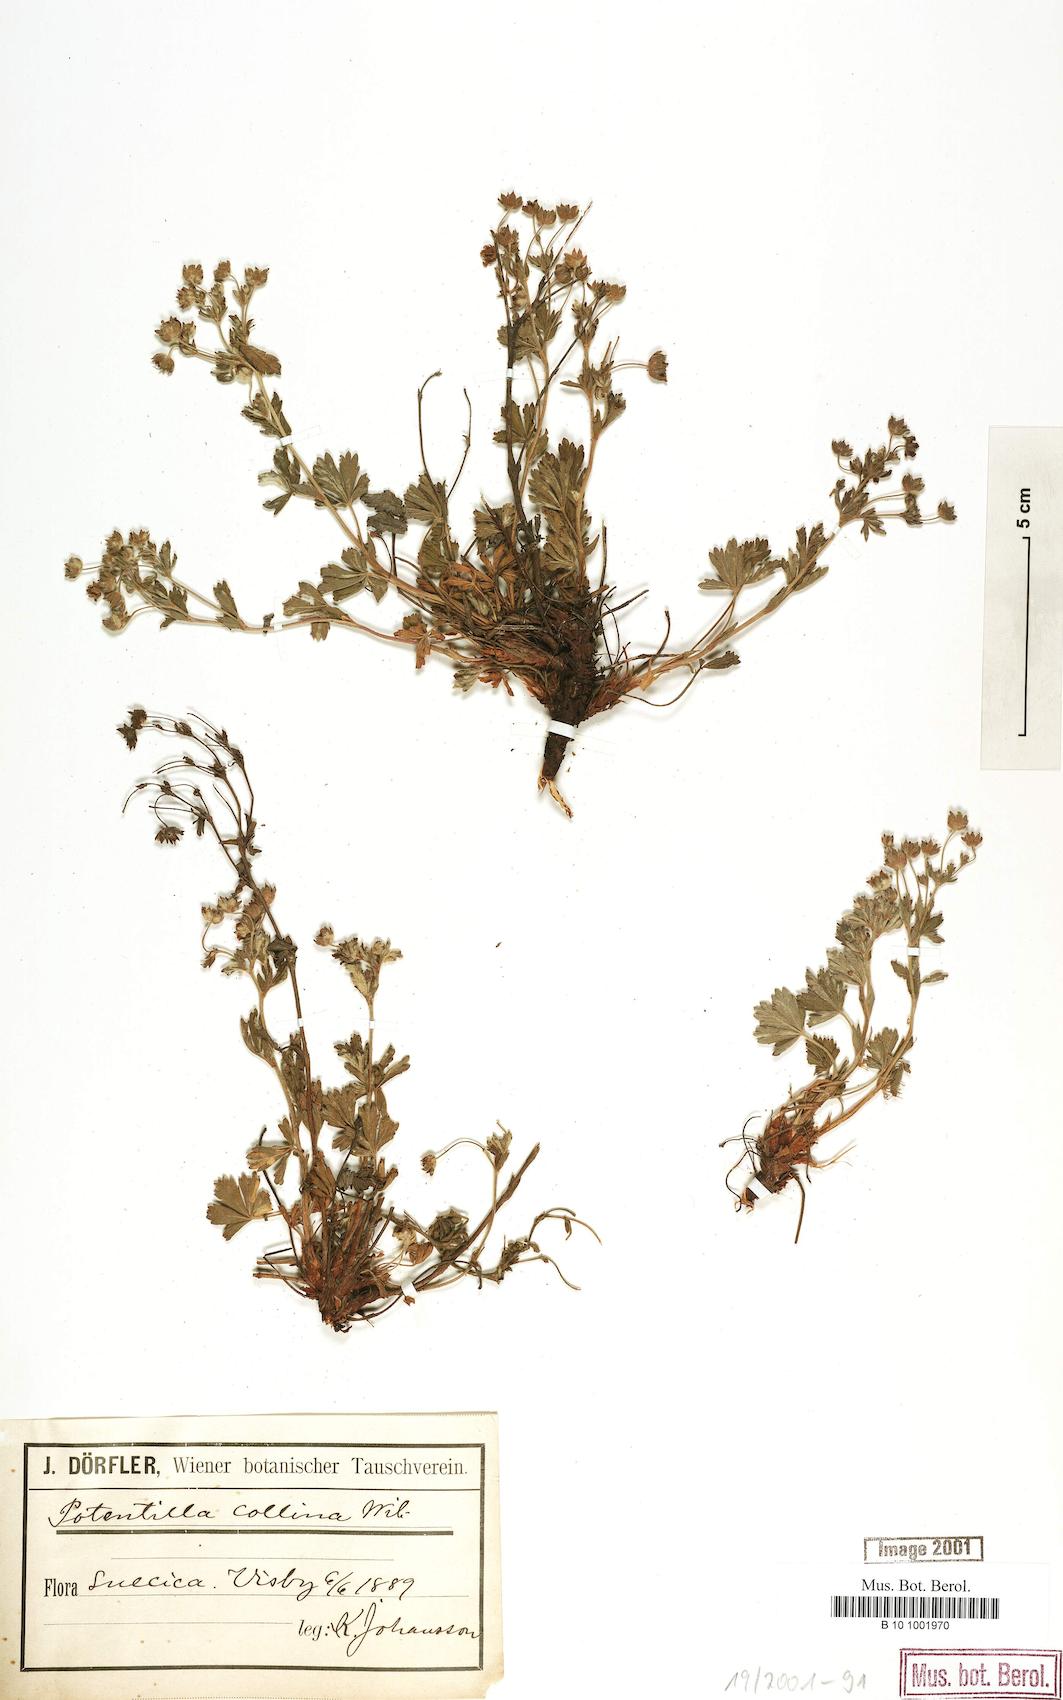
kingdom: Plantae
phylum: Tracheophyta
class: Magnoliopsida
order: Rosales
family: Rosaceae
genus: Potentilla
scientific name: Potentilla collina
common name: Palmleaf cinquefoil
